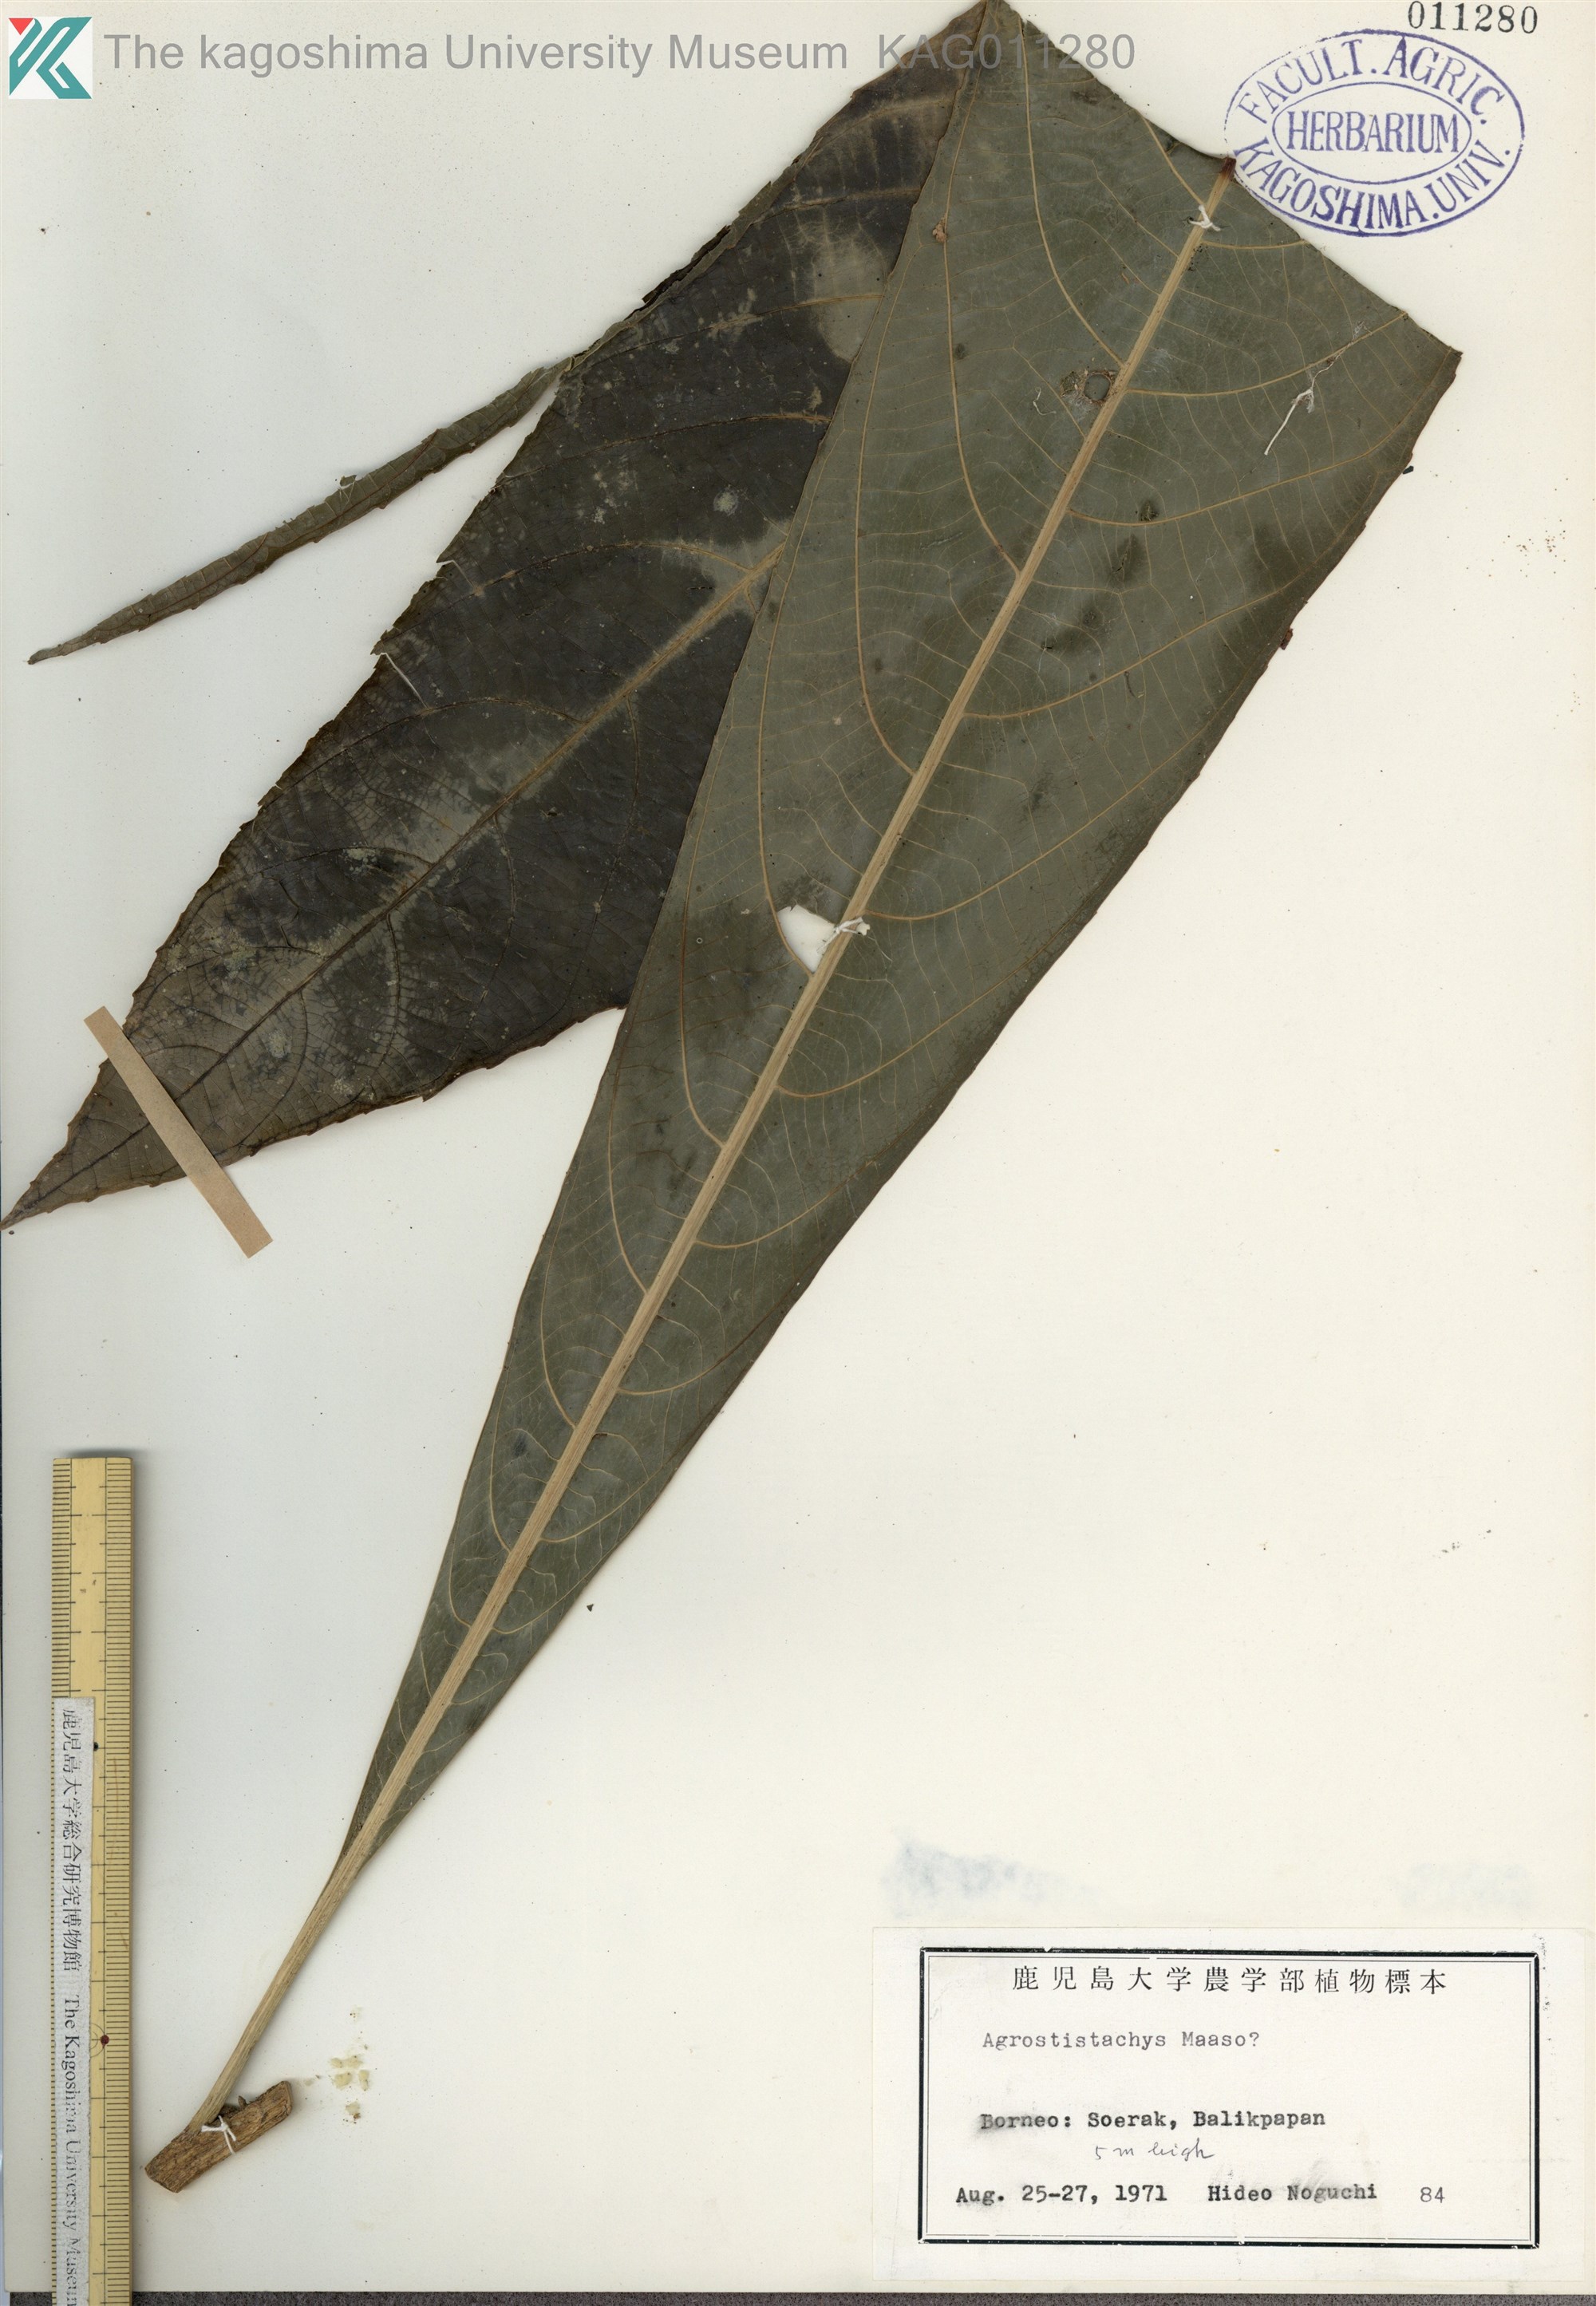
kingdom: Plantae
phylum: Tracheophyta
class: Magnoliopsida
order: Malpighiales
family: Euphorbiaceae
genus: Agrostistachys
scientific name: Agrostistachys
